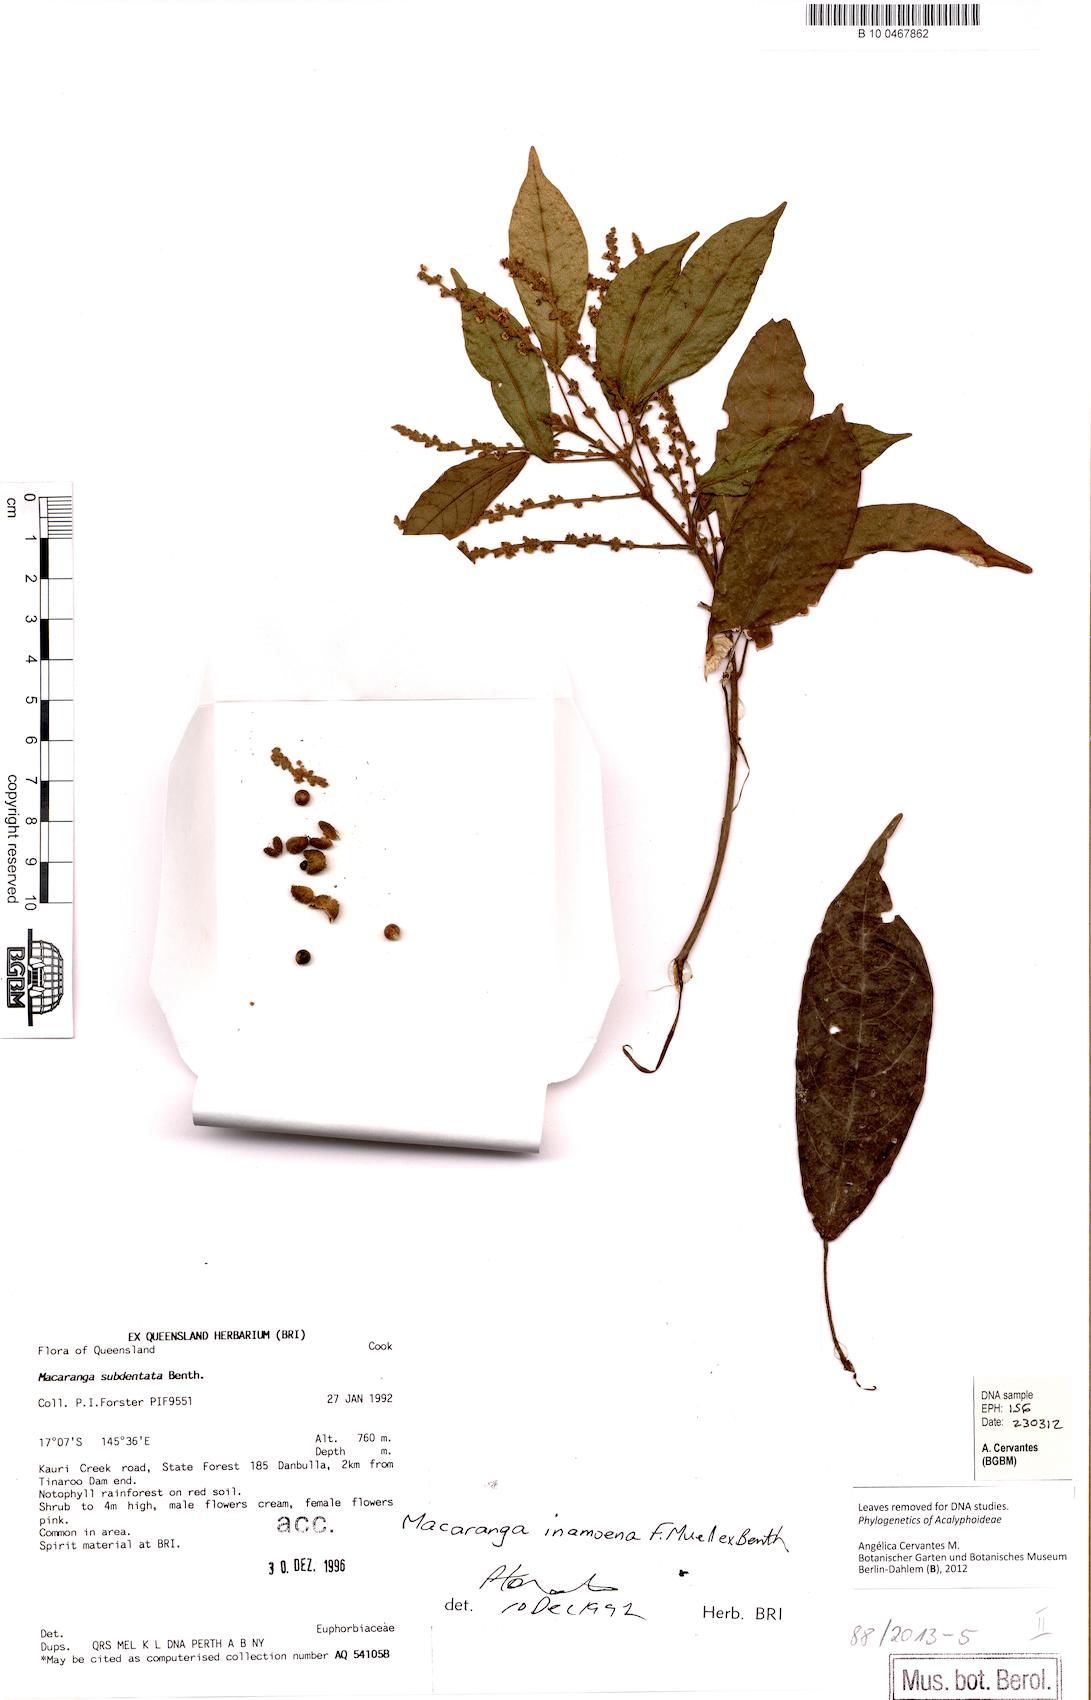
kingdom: Plantae
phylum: Tracheophyta
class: Magnoliopsida
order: Malpighiales
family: Euphorbiaceae
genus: Macaranga
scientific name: Macaranga subdentata
